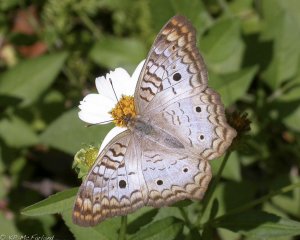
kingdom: Animalia
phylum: Arthropoda
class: Insecta
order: Lepidoptera
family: Nymphalidae
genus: Anartia
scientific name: Anartia jatrophae
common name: White Peacock
